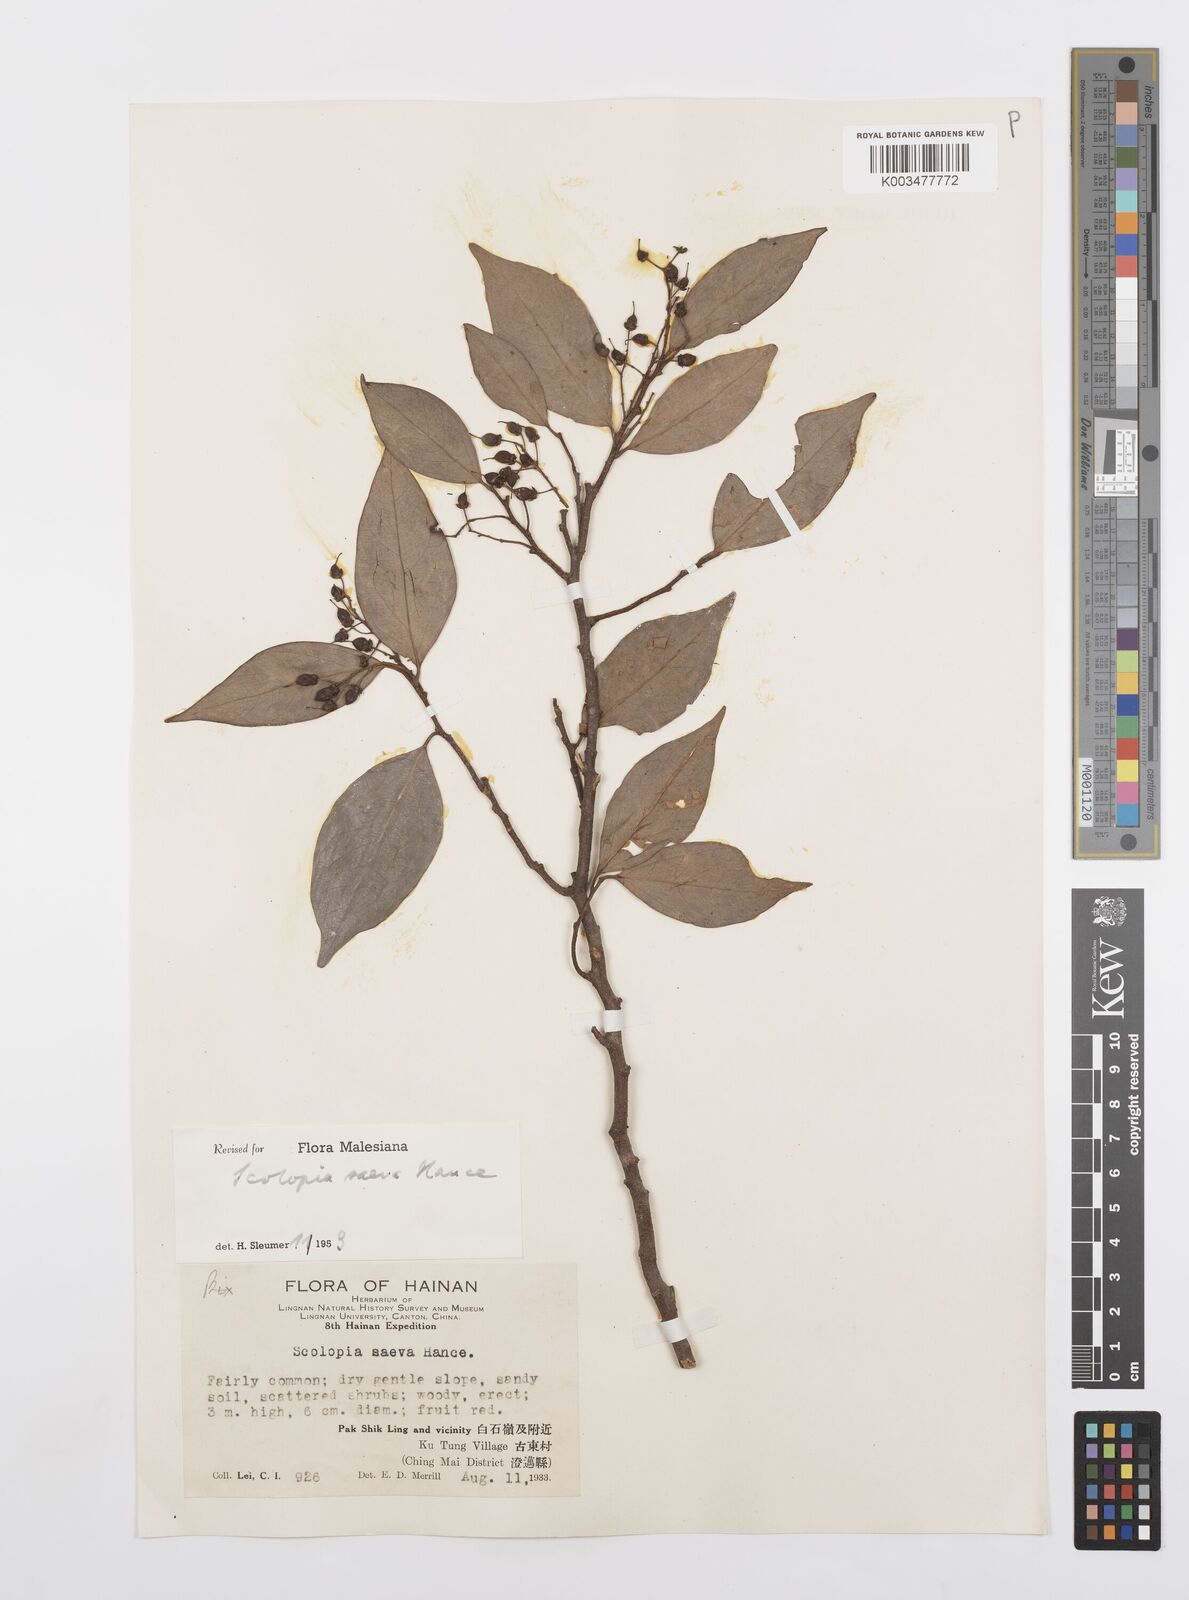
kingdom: Plantae
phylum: Tracheophyta
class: Magnoliopsida
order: Malpighiales
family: Salicaceae
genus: Scolopia
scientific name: Scolopia saeva
